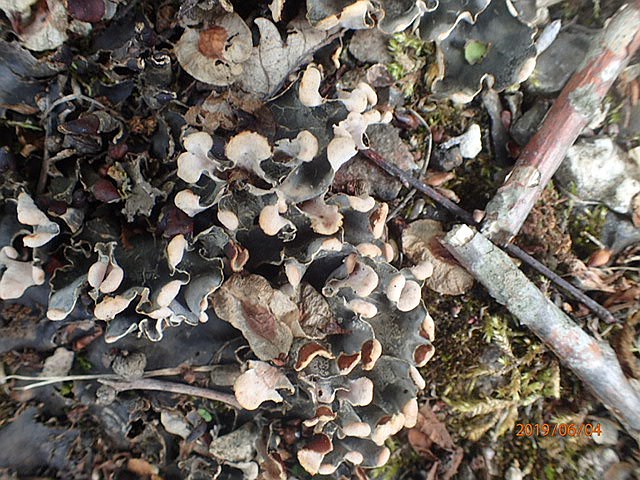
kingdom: Fungi
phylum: Ascomycota
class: Lecanoromycetes
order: Peltigerales
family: Peltigeraceae
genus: Peltigera
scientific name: Peltigera didactyla
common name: liden skjoldlav
